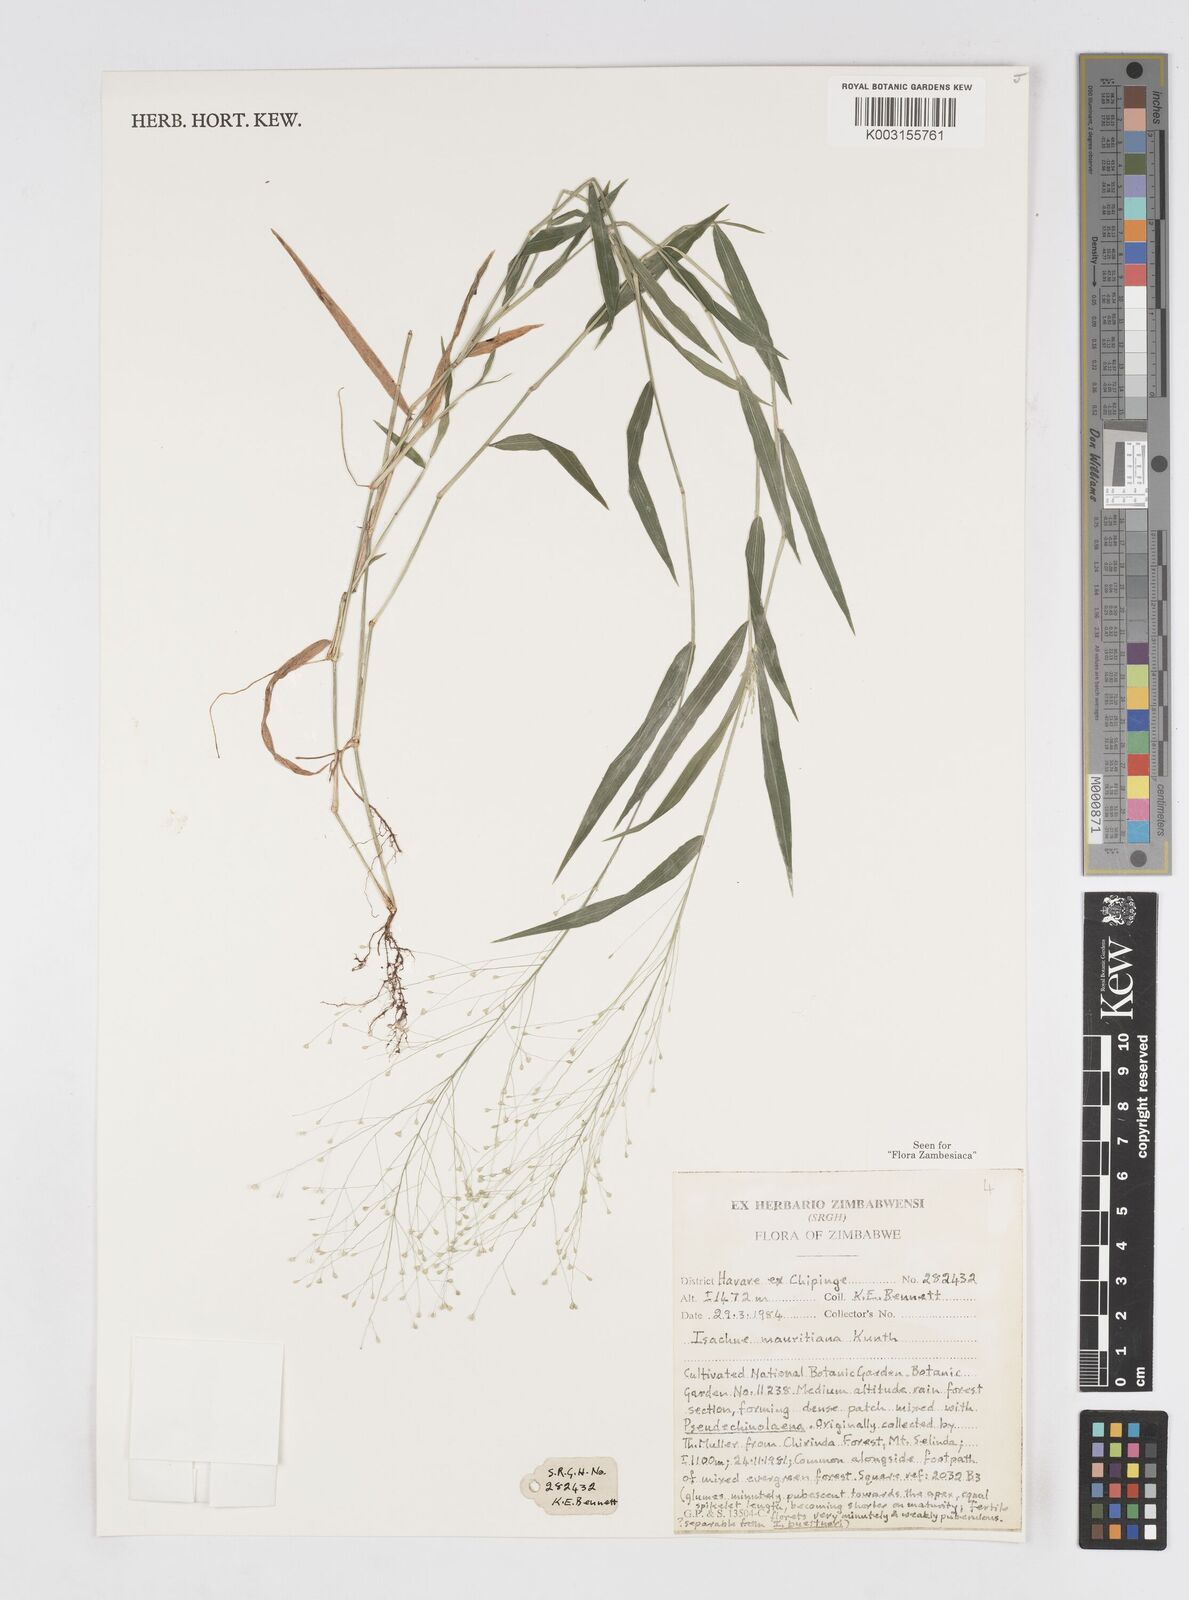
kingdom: Plantae
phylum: Tracheophyta
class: Liliopsida
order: Poales
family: Poaceae
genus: Isachne
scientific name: Isachne mauritiana
